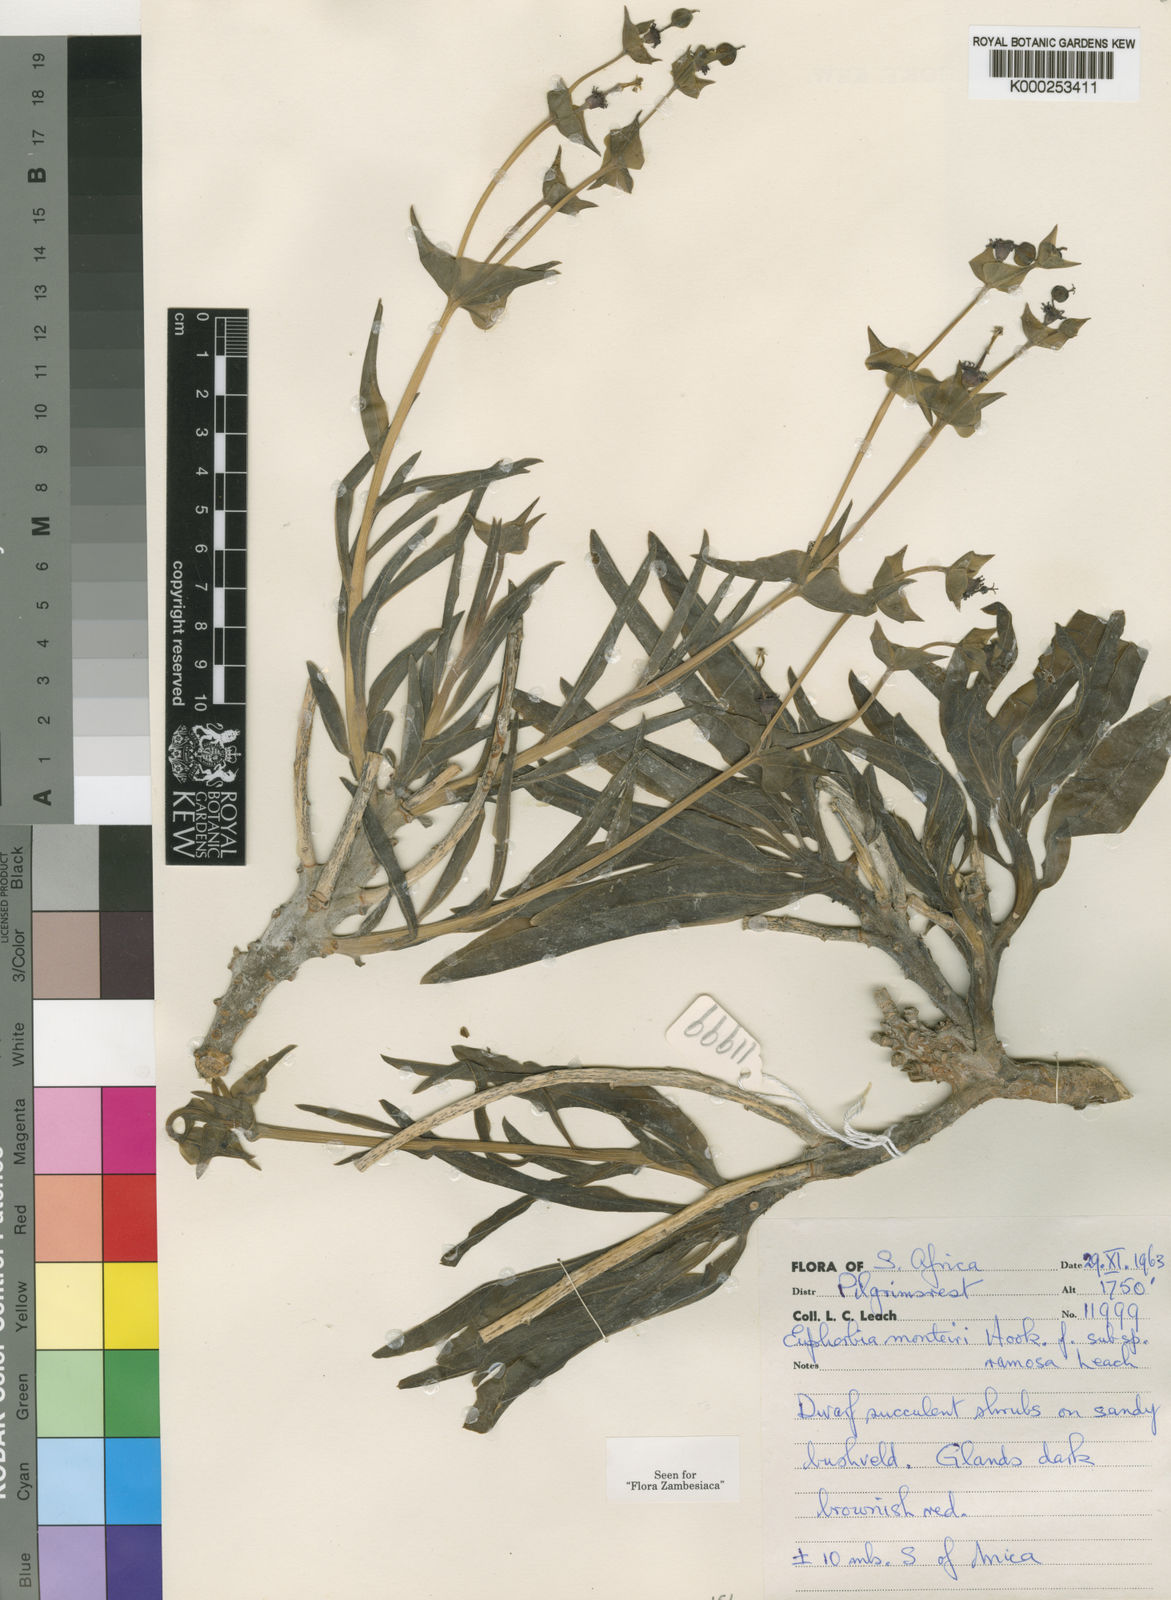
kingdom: Plantae
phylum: Tracheophyta
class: Magnoliopsida
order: Malpighiales
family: Euphorbiaceae
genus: Euphorbia
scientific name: Euphorbia monteiroi
